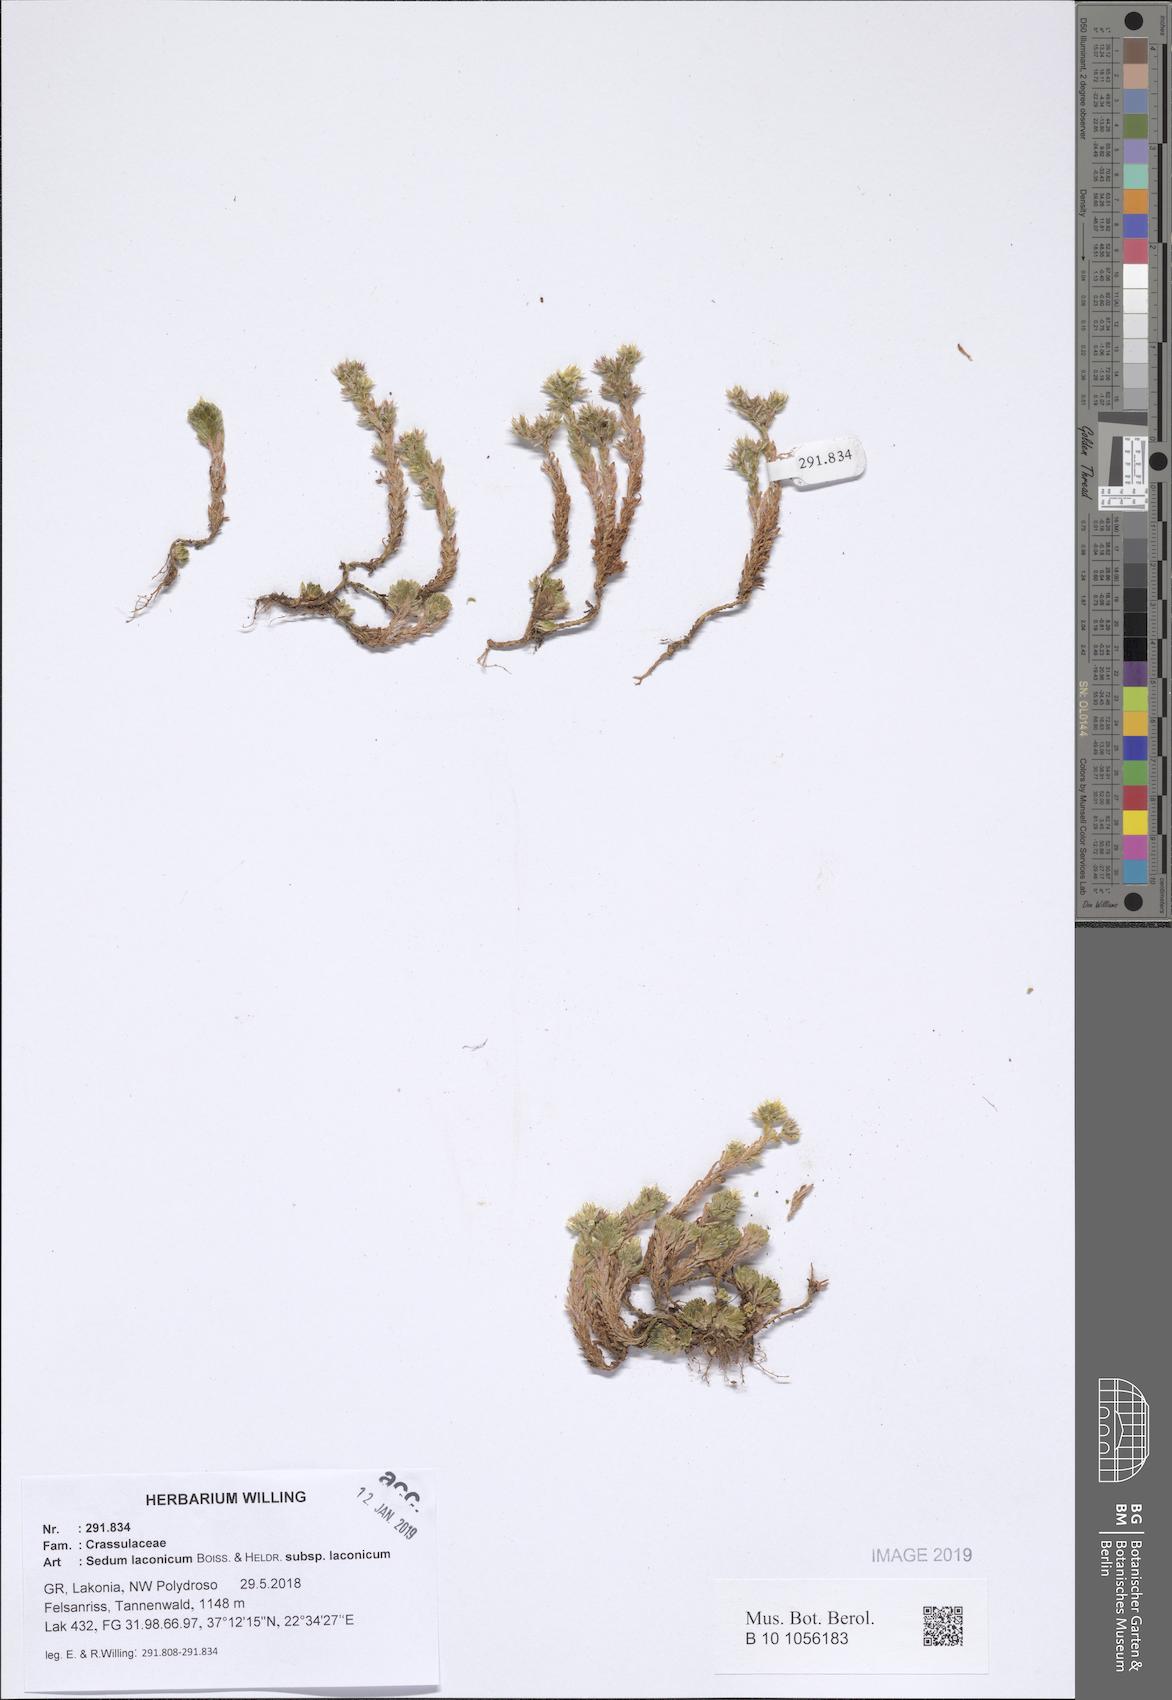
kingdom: Plantae
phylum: Tracheophyta
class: Magnoliopsida
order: Saxifragales
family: Crassulaceae
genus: Sedum
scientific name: Sedum laconicum
